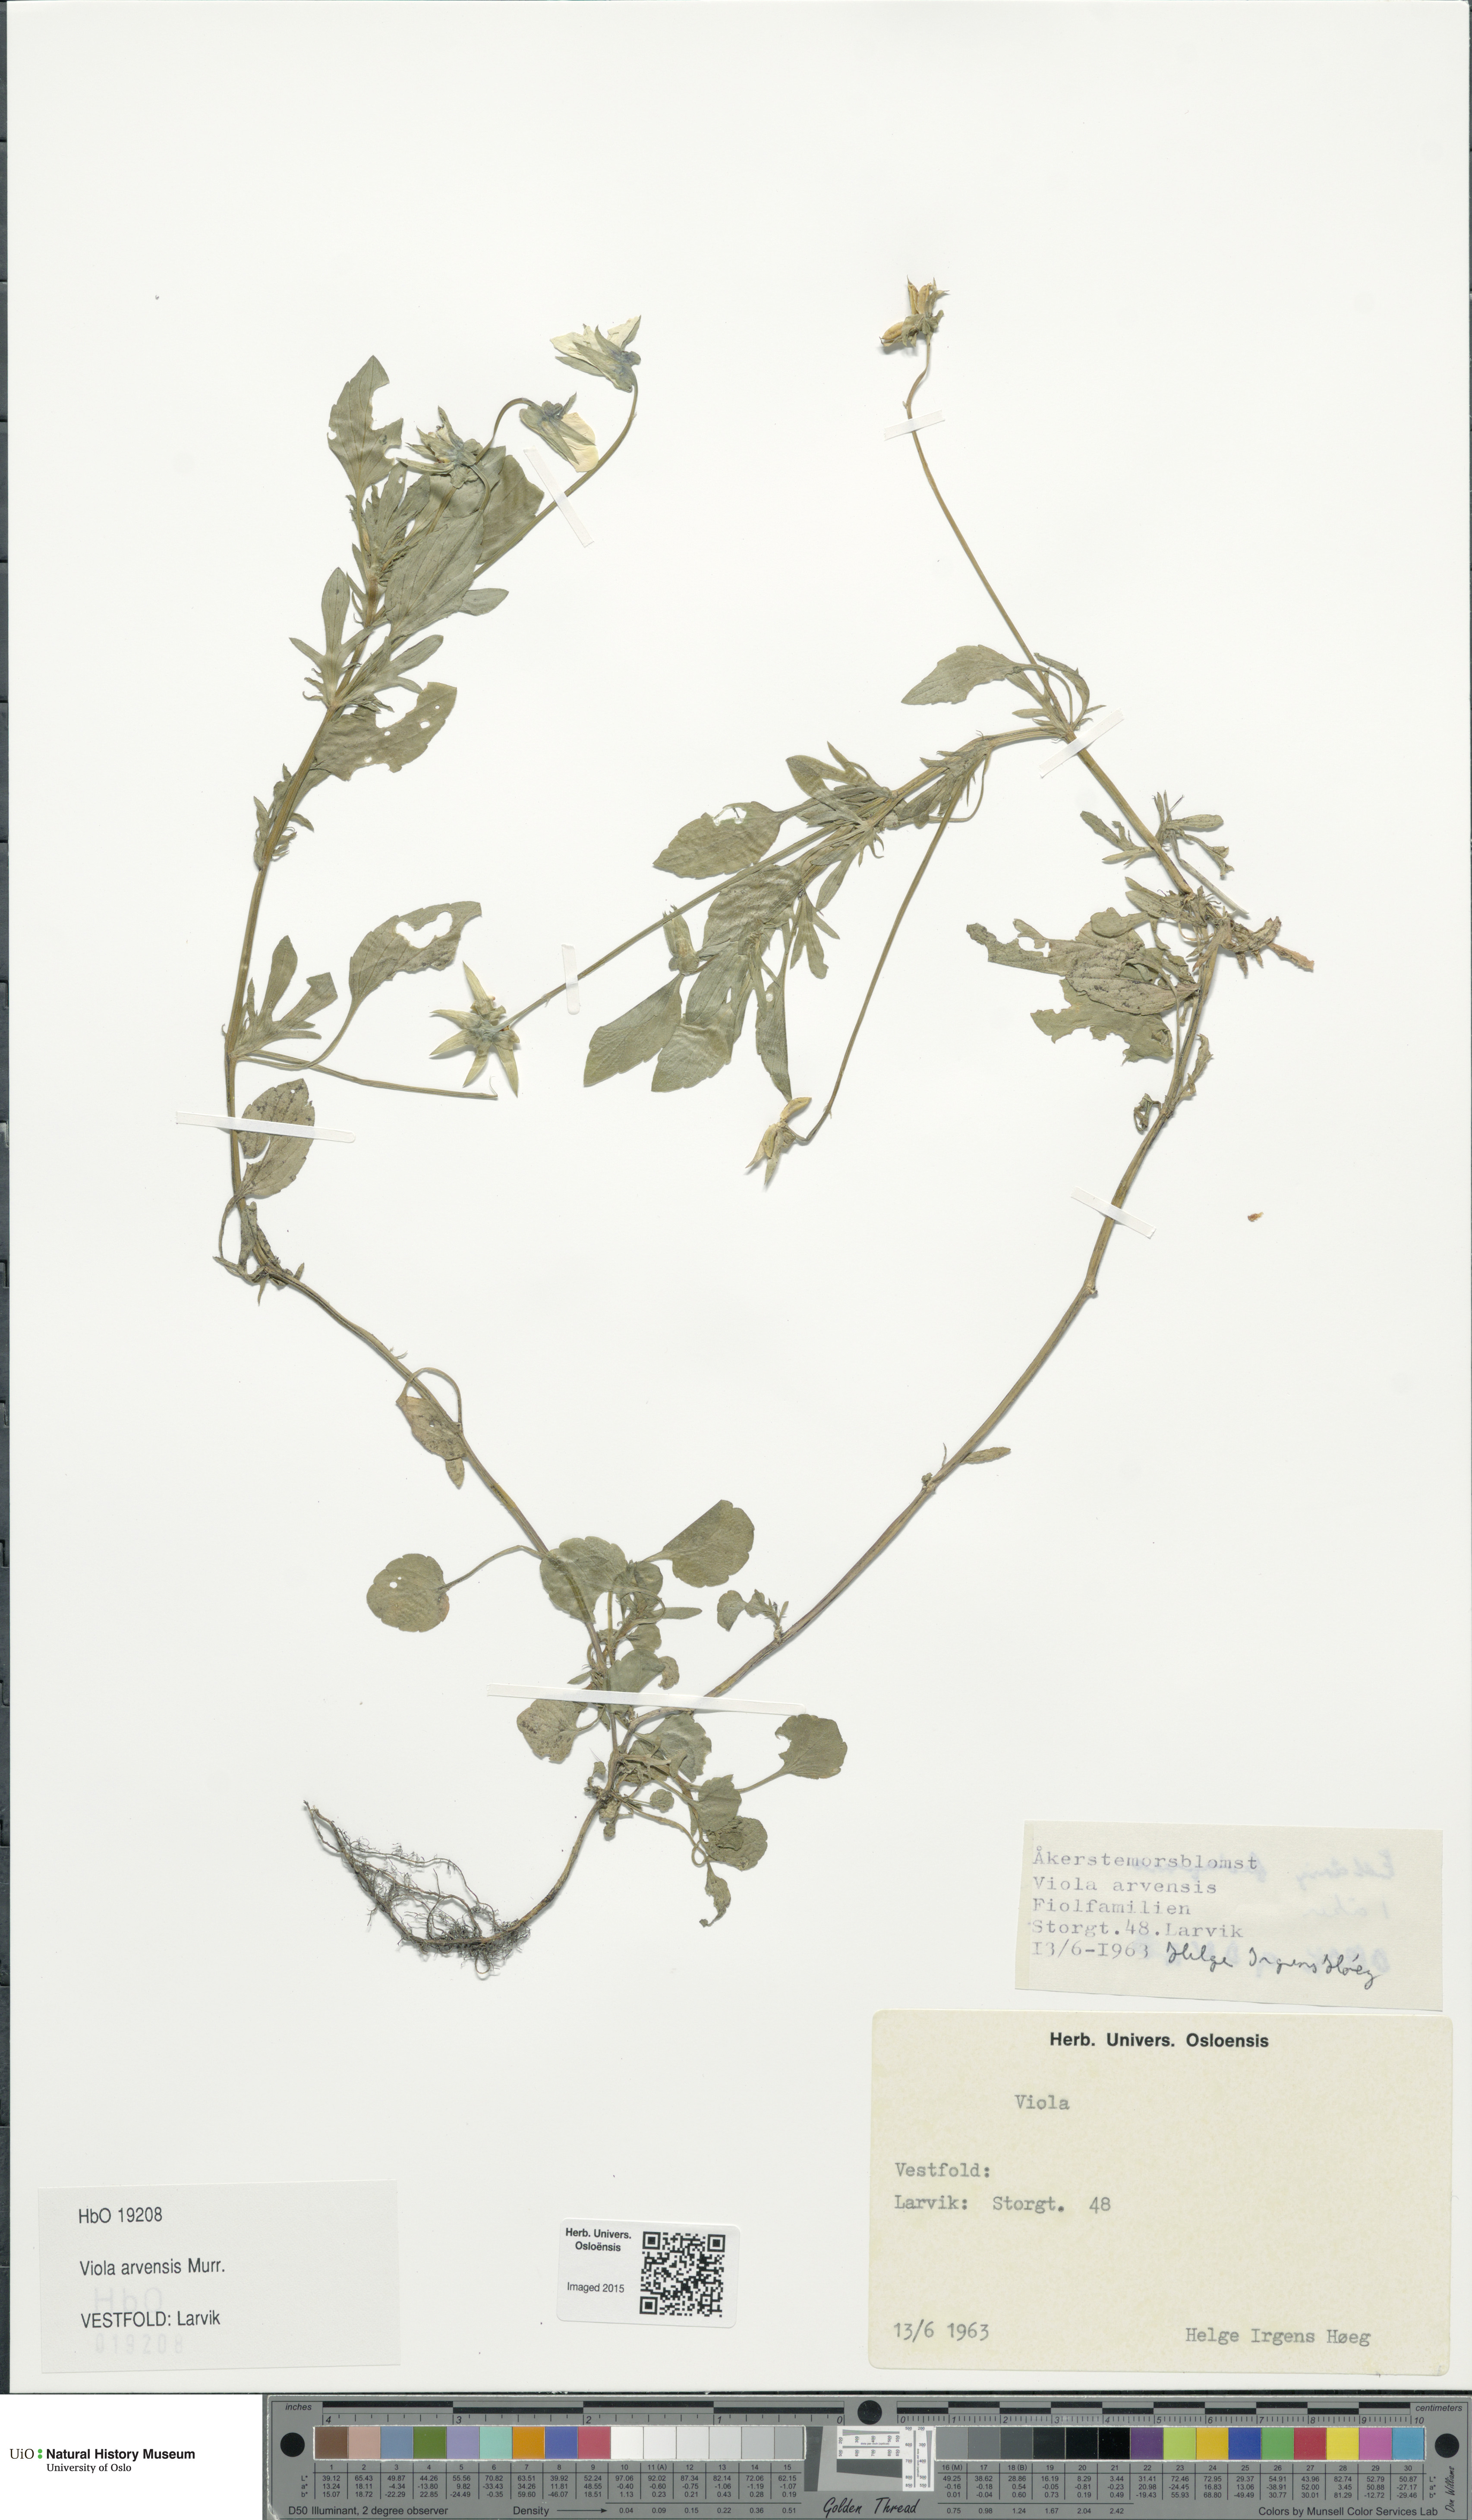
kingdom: Plantae
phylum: Tracheophyta
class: Magnoliopsida
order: Malpighiales
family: Violaceae
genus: Viola
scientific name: Viola arvensis
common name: Field pansy
